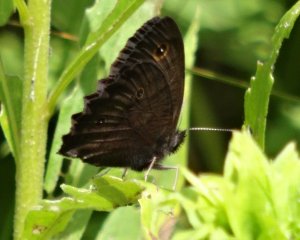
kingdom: Animalia
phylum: Arthropoda
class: Insecta
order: Lepidoptera
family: Nymphalidae
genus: Cercyonis
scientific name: Cercyonis pegala
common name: Common Wood-Nymph
